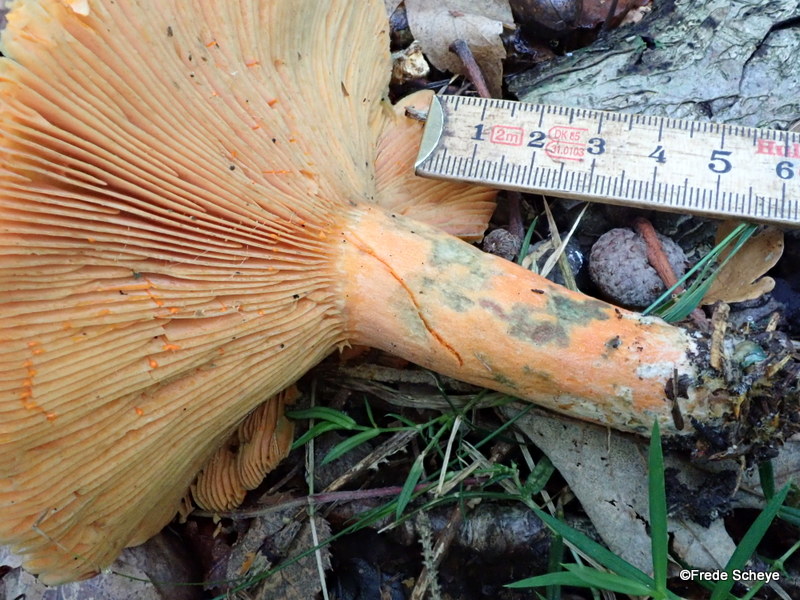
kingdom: Fungi
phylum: Basidiomycota
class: Agaricomycetes
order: Russulales
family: Russulaceae
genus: Lactarius
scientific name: Lactarius deterrimus
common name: gran-mælkehat
